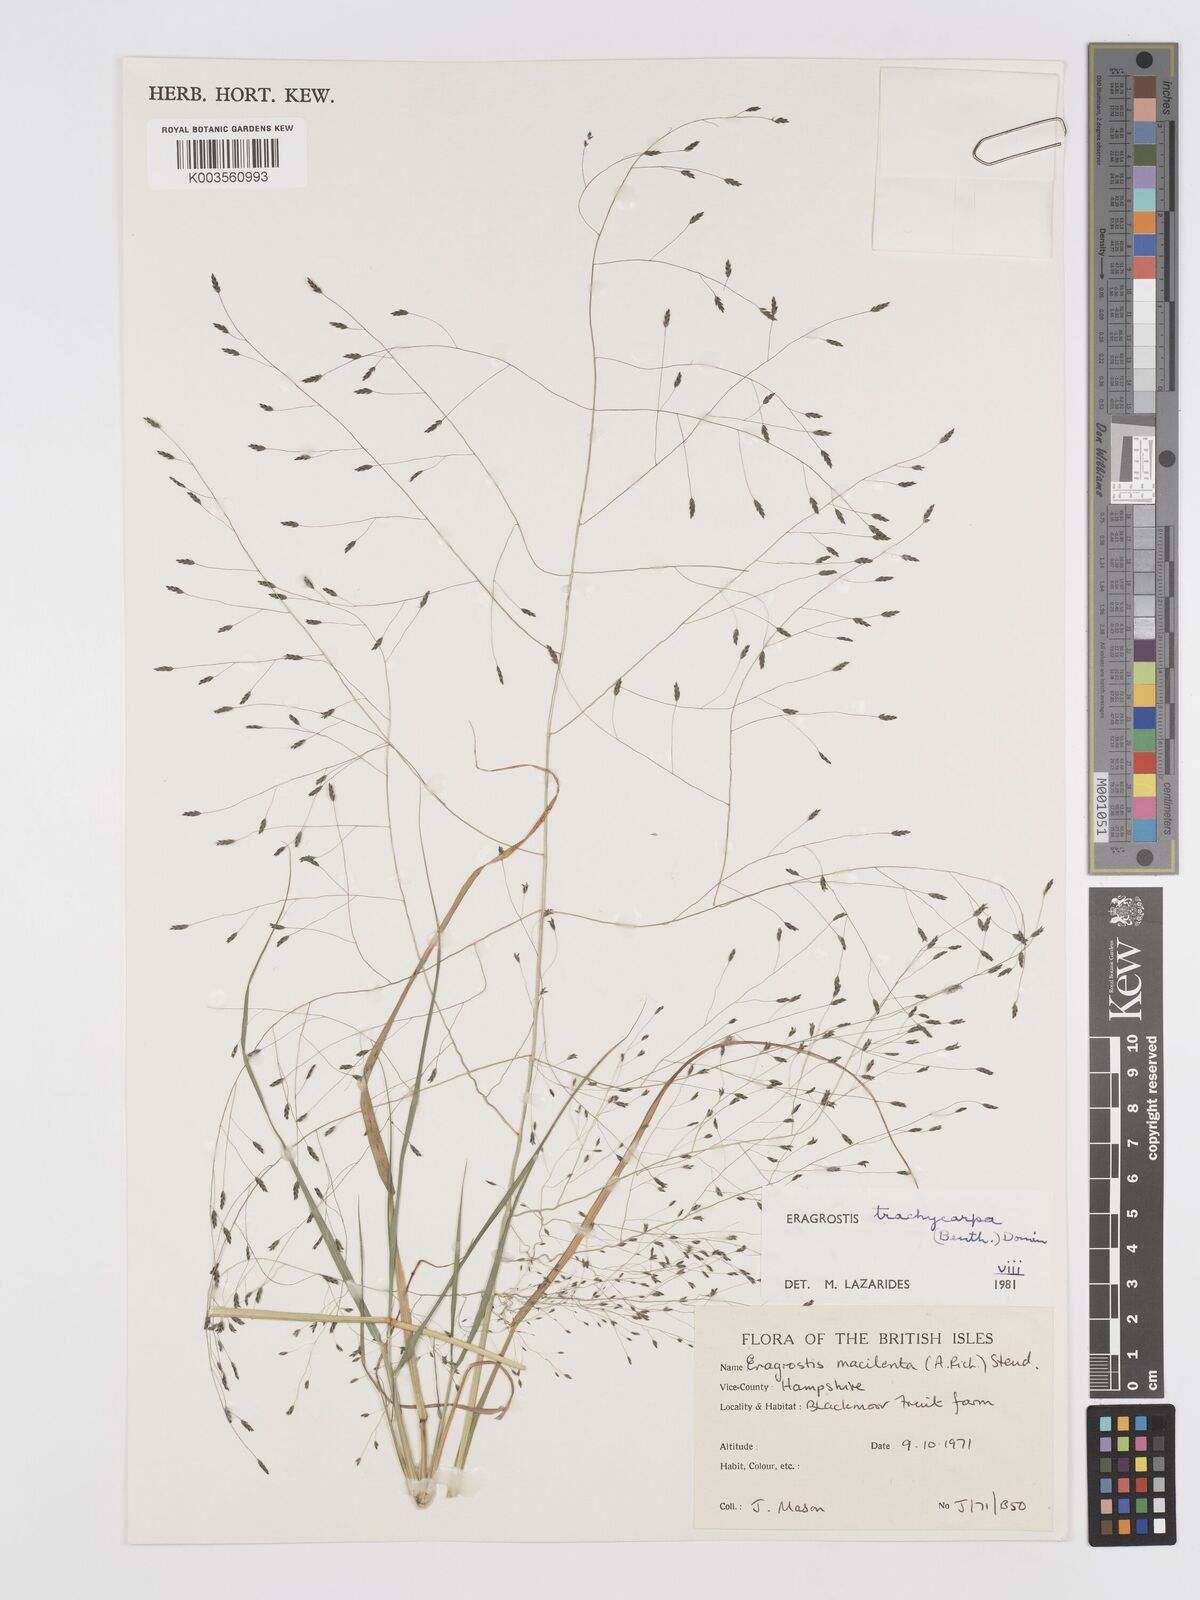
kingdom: Plantae
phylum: Tracheophyta
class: Liliopsida
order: Poales
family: Poaceae
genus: Eragrostis
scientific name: Eragrostis trachycarpa
